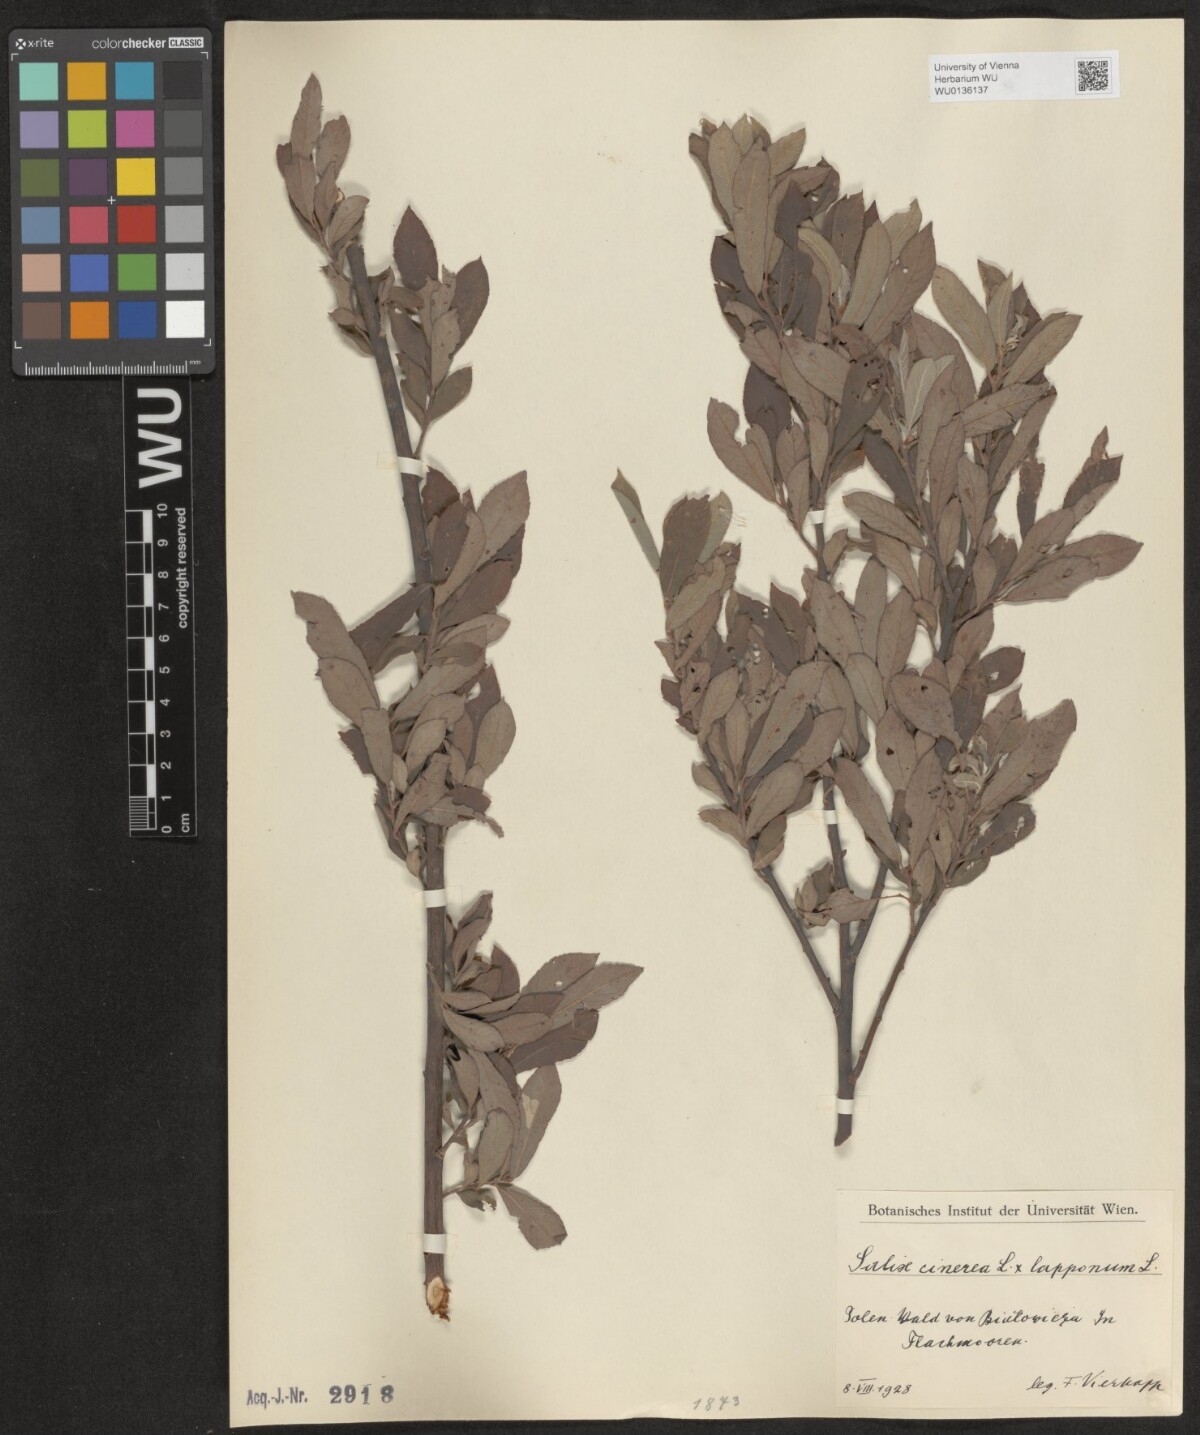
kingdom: Plantae
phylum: Tracheophyta
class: Magnoliopsida
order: Malpighiales
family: Salicaceae
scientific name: Salicaceae
